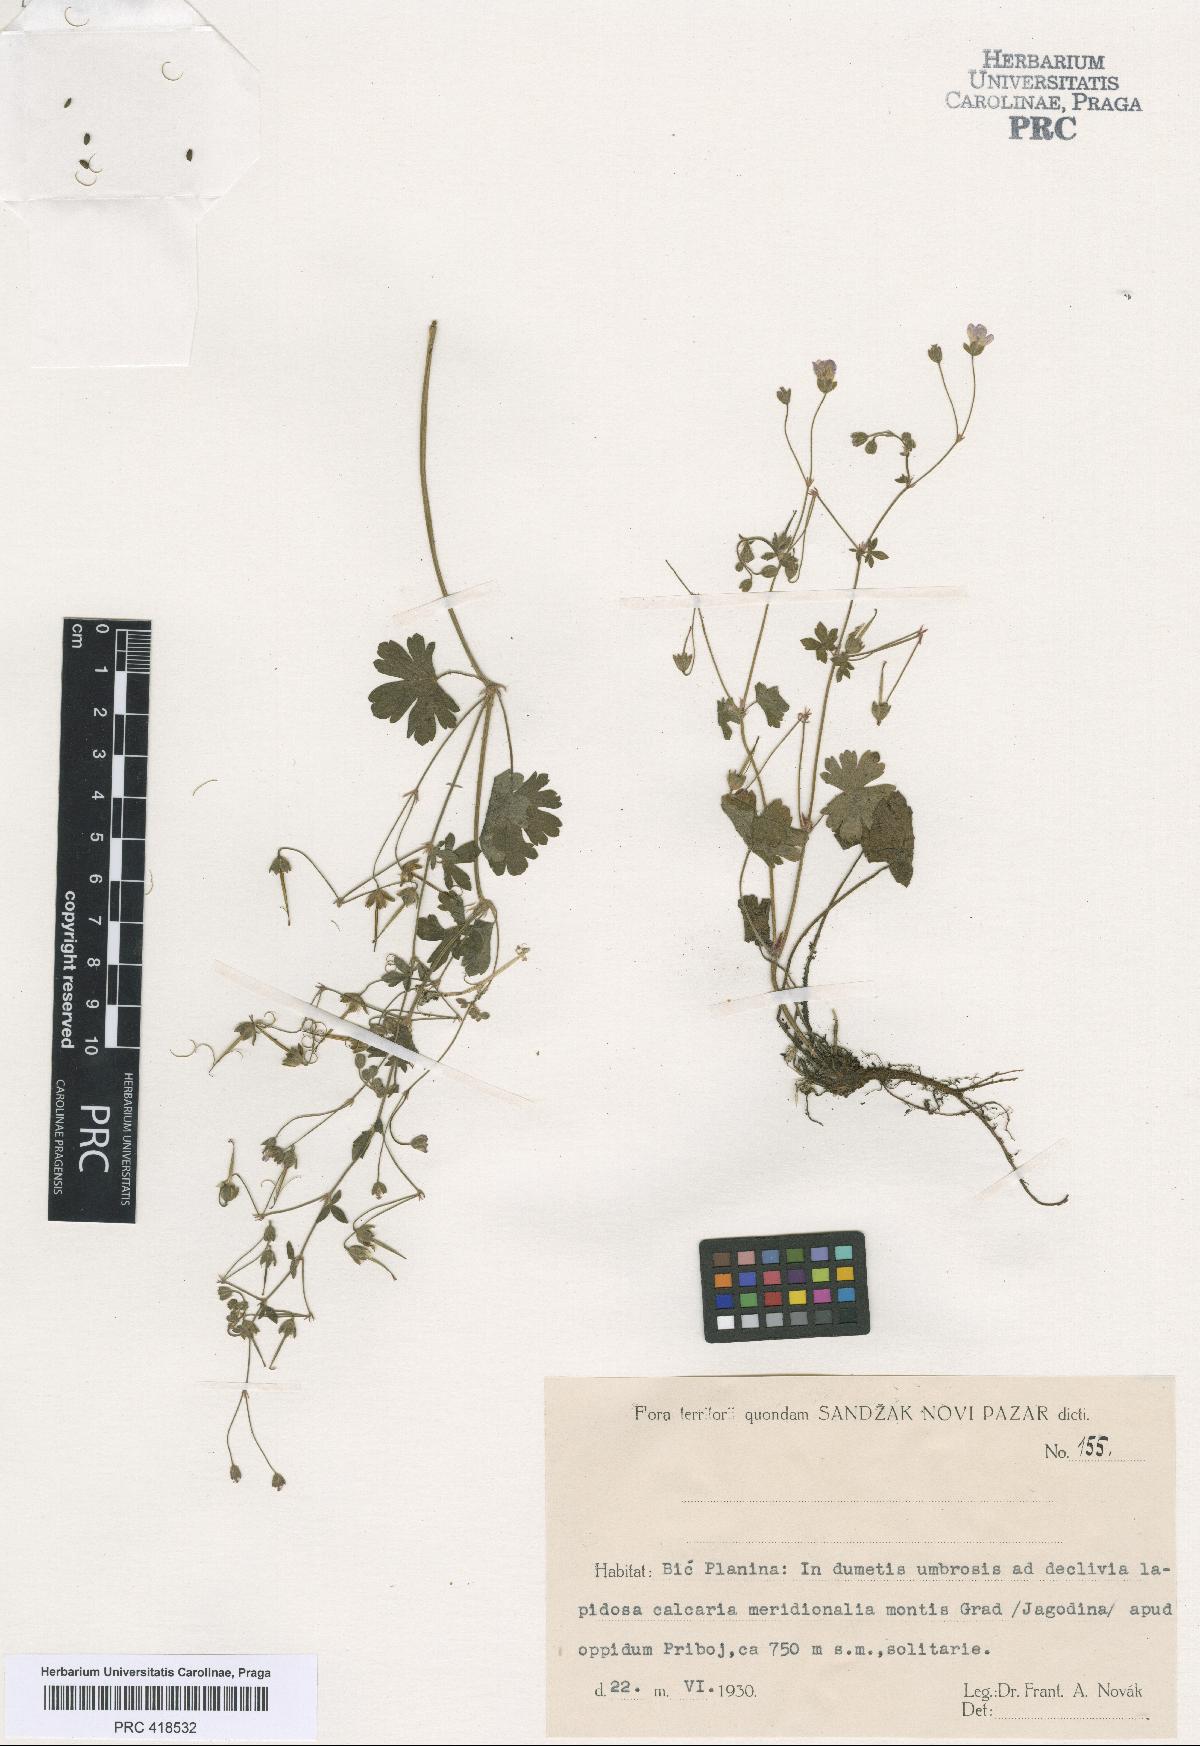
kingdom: Plantae
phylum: Tracheophyta
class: Magnoliopsida
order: Geraniales
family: Geraniaceae
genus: Geranium
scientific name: Geranium pyrenaicum
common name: Hedgerow crane's-bill
